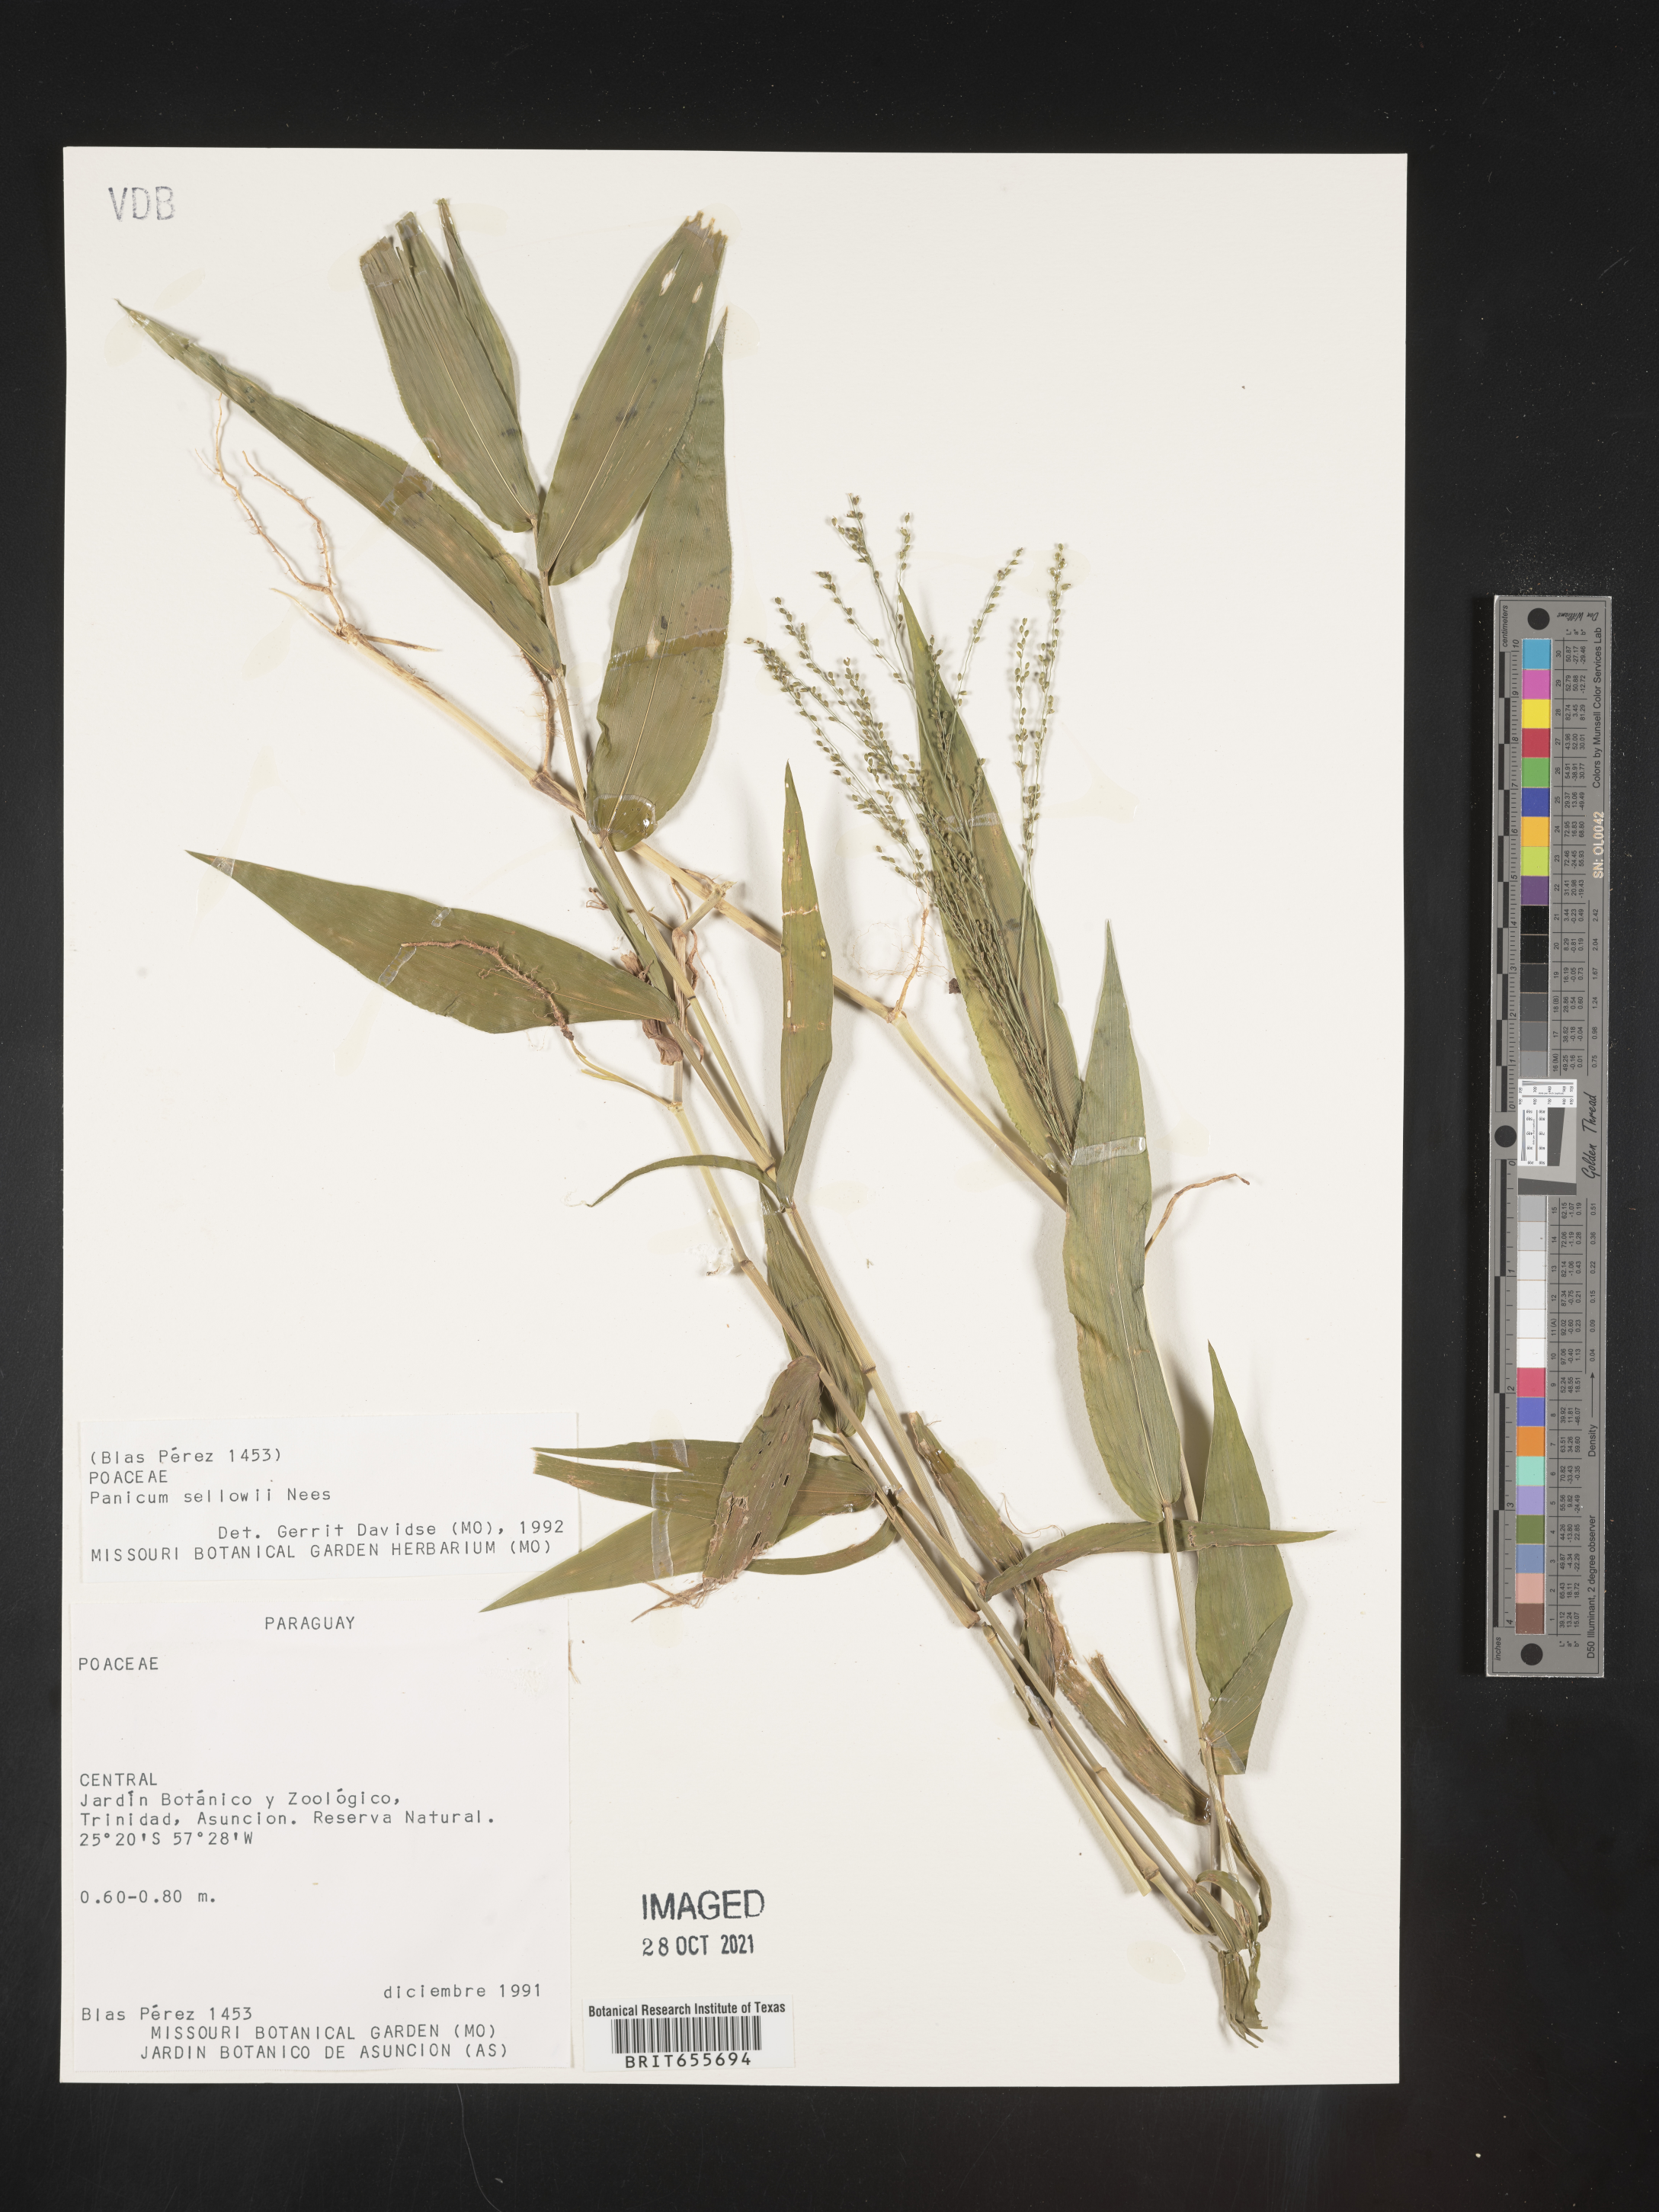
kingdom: Plantae
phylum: Tracheophyta
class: Liliopsida
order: Poales
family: Poaceae
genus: Panicum
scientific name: Panicum
